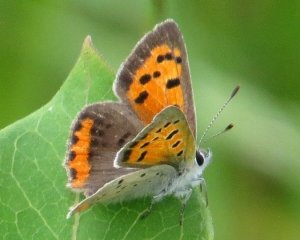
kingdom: Animalia
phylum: Arthropoda
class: Insecta
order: Lepidoptera
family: Lycaenidae
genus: Lycaena
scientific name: Lycaena phlaeas
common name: American Copper
